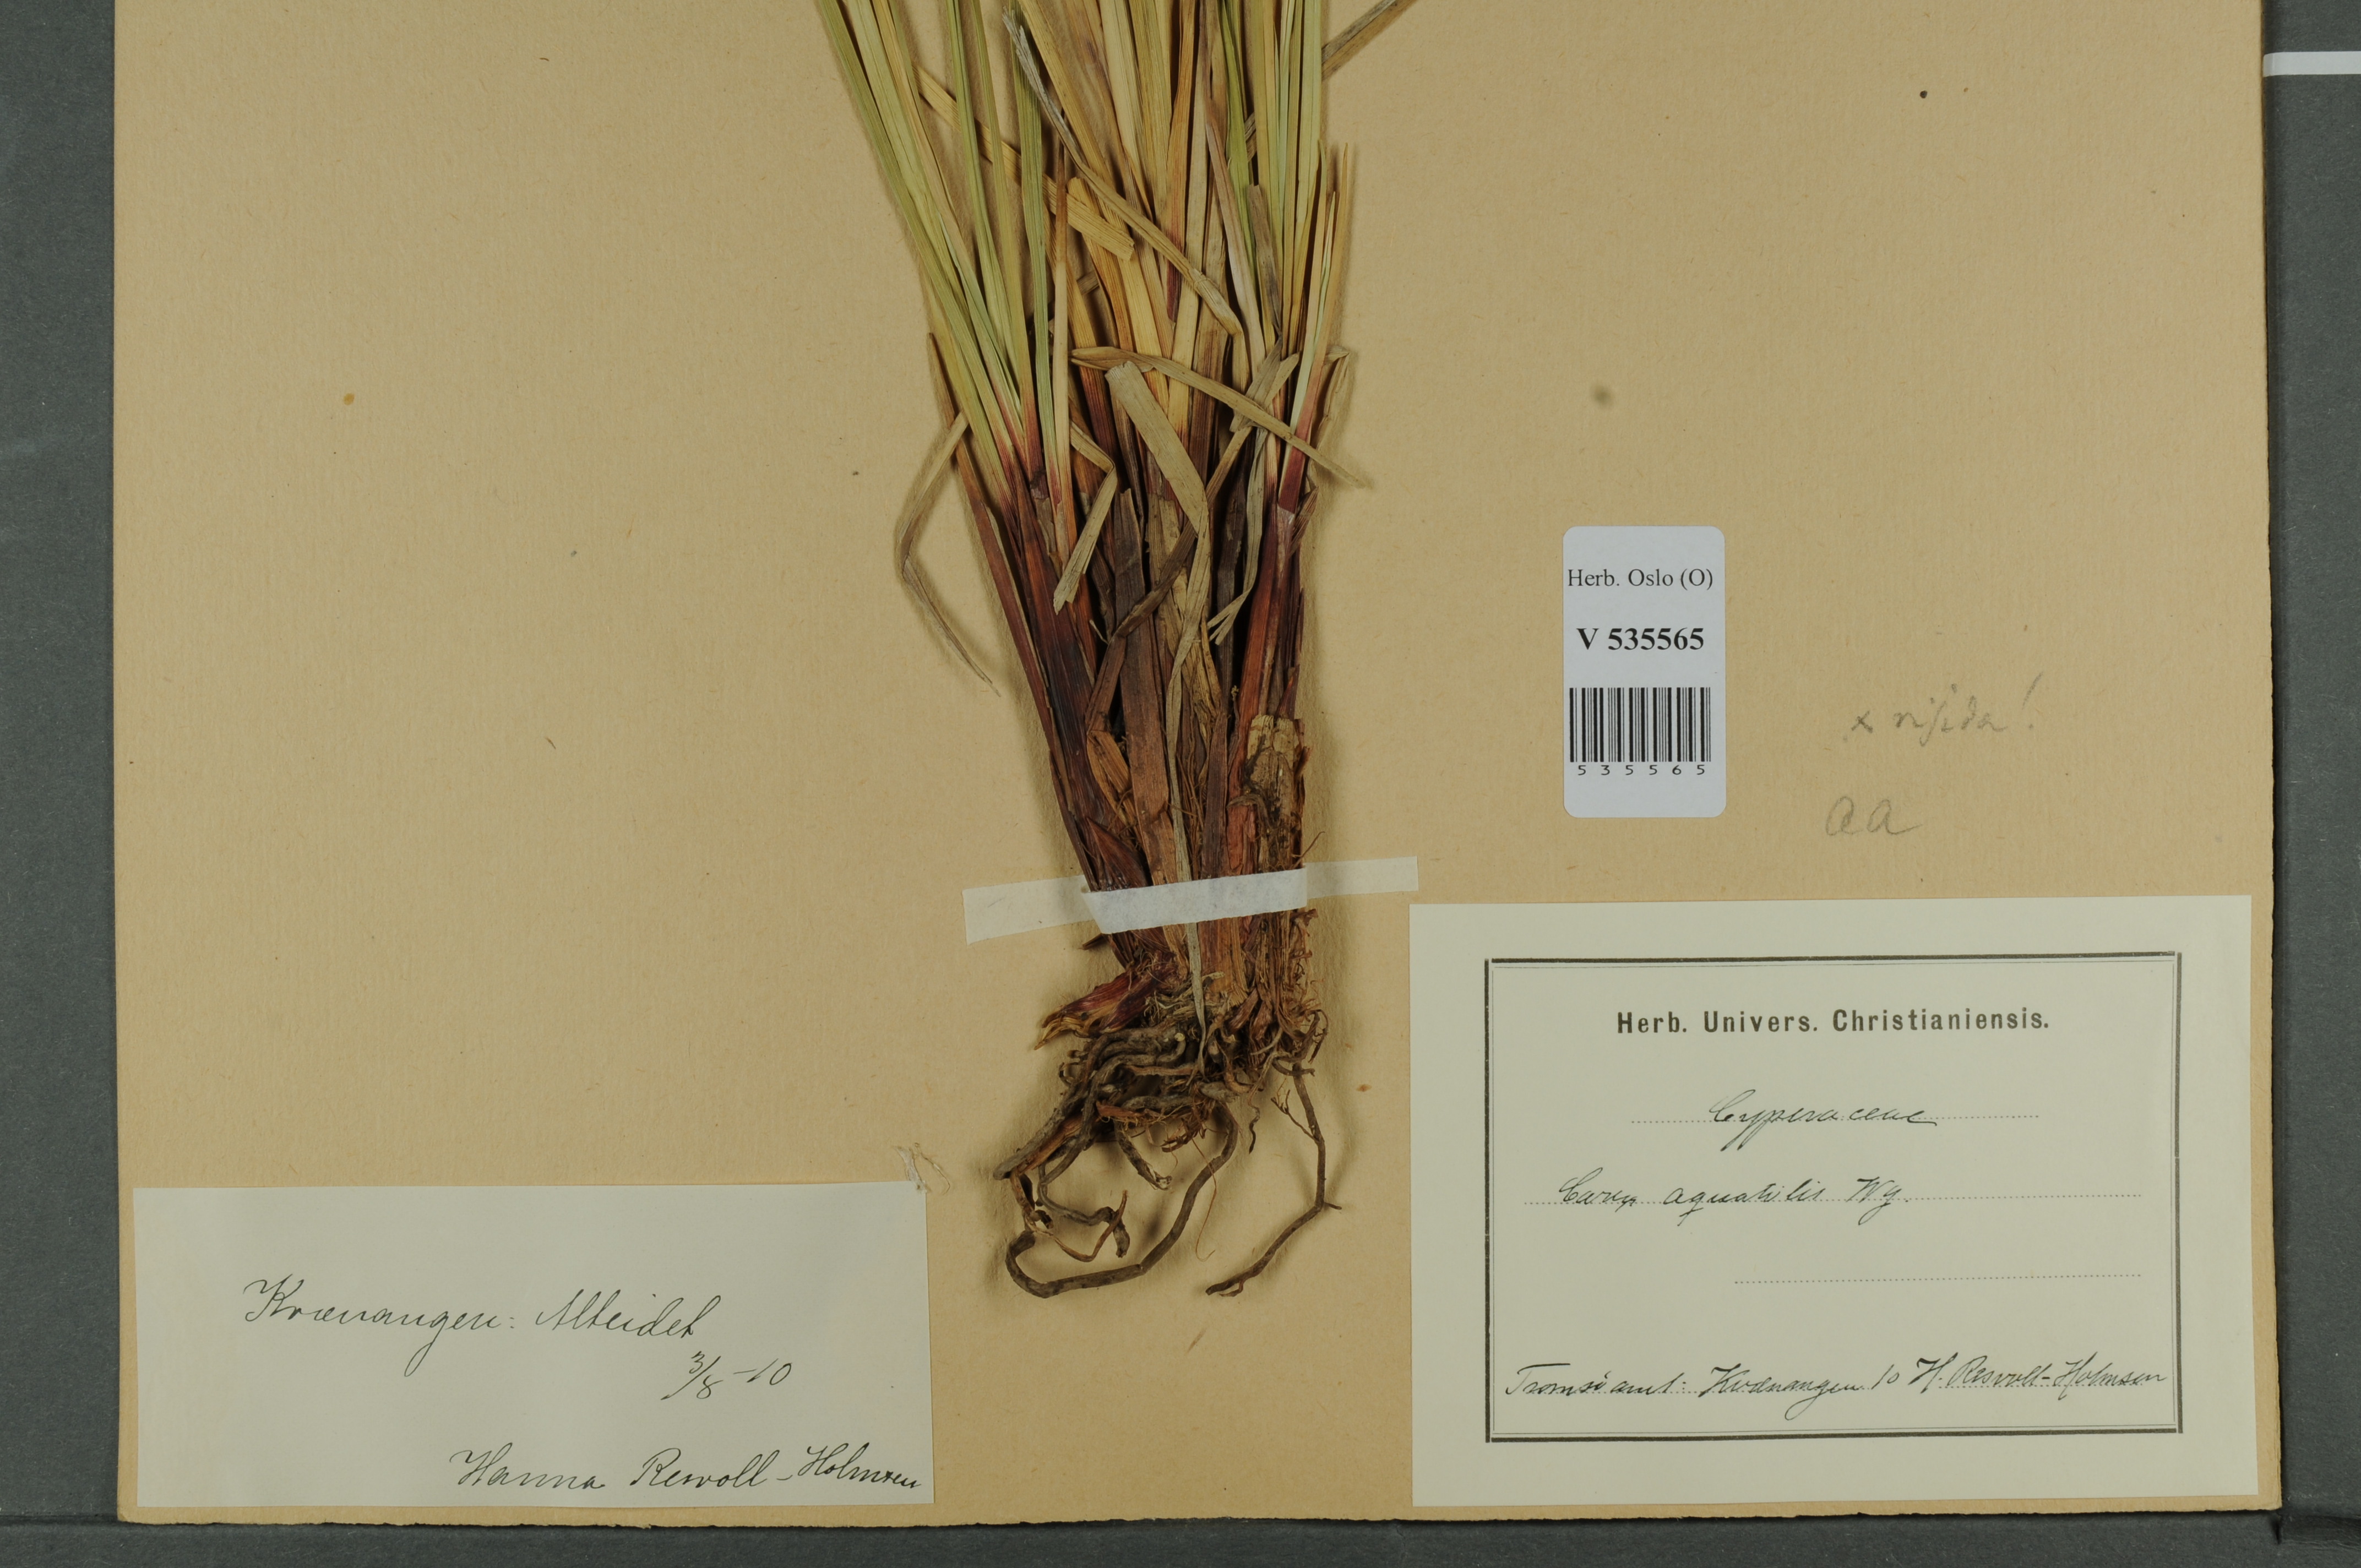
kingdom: Plantae
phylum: Tracheophyta
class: Liliopsida
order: Poales
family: Cyperaceae
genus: Carex
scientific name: Carex
